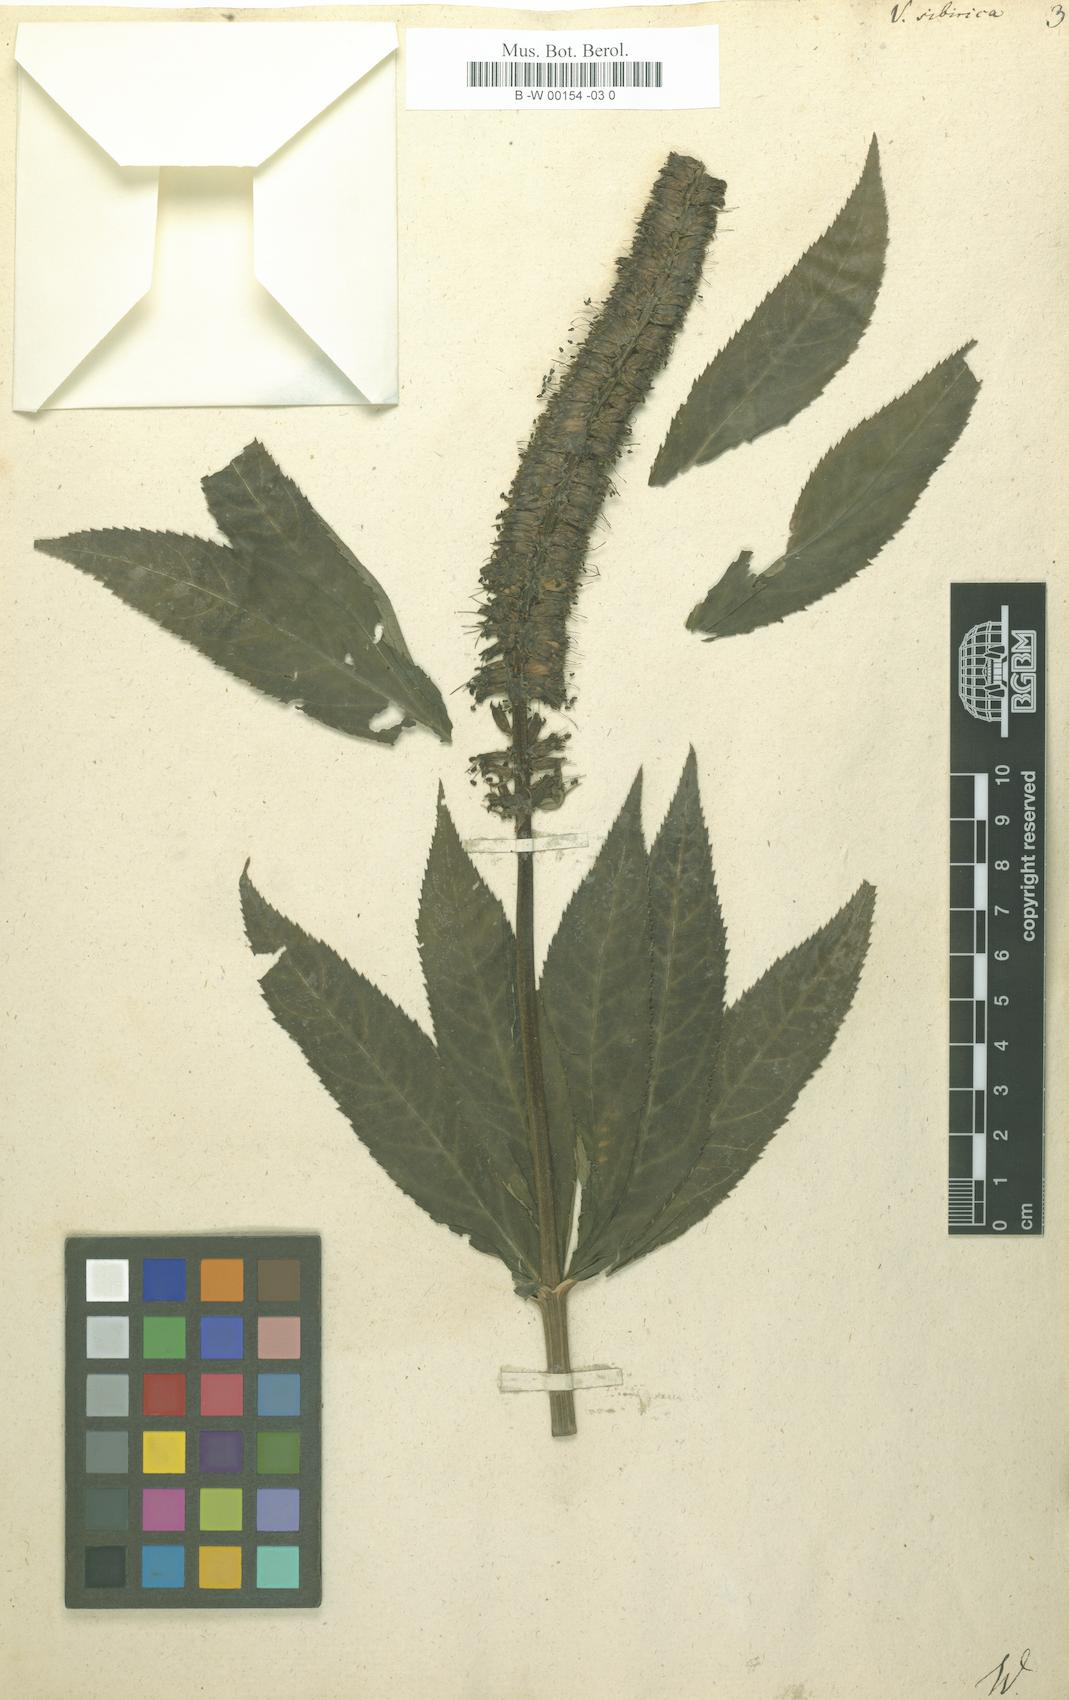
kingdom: Plantae
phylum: Tracheophyta
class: Magnoliopsida
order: Lamiales
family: Plantaginaceae
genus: Veronicastrum
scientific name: Veronicastrum sibiricum
